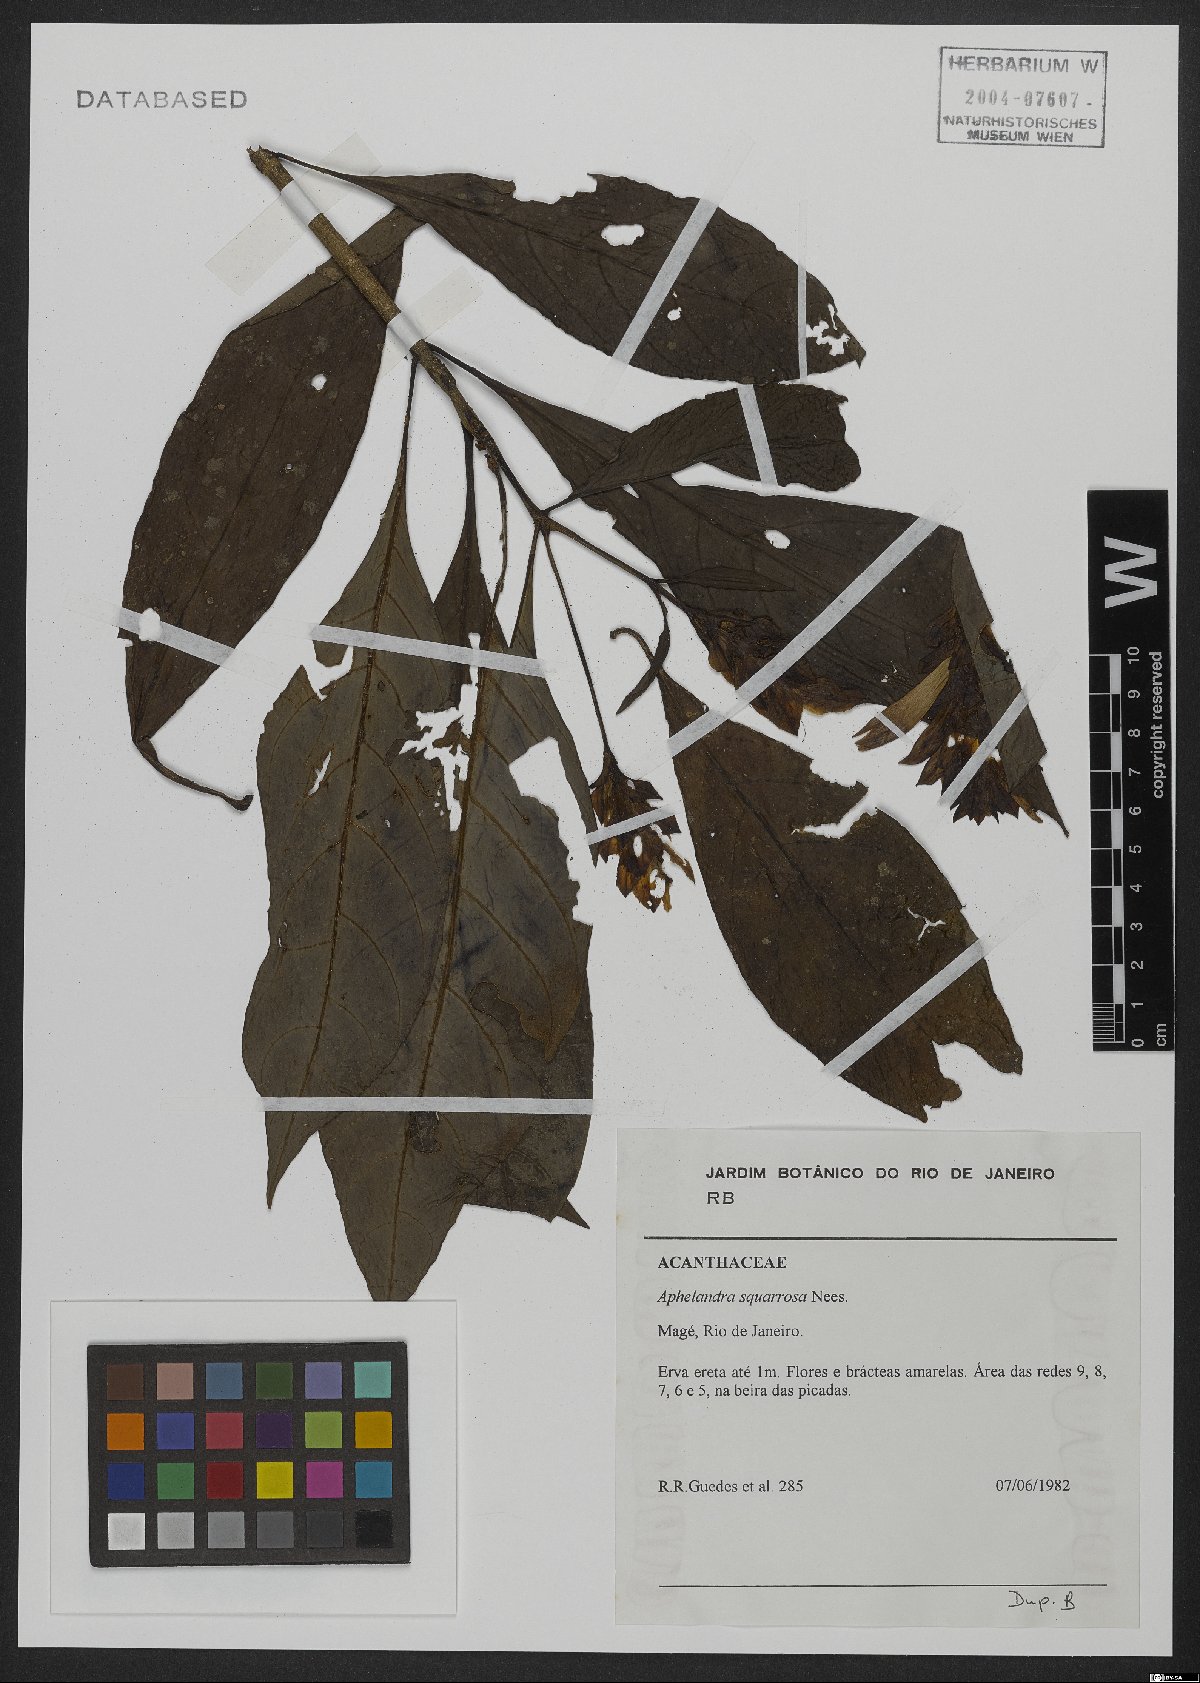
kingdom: Plantae
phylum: Tracheophyta
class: Magnoliopsida
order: Lamiales
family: Acanthaceae
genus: Aphelandra
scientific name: Aphelandra squarrosa
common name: Saffron spike
